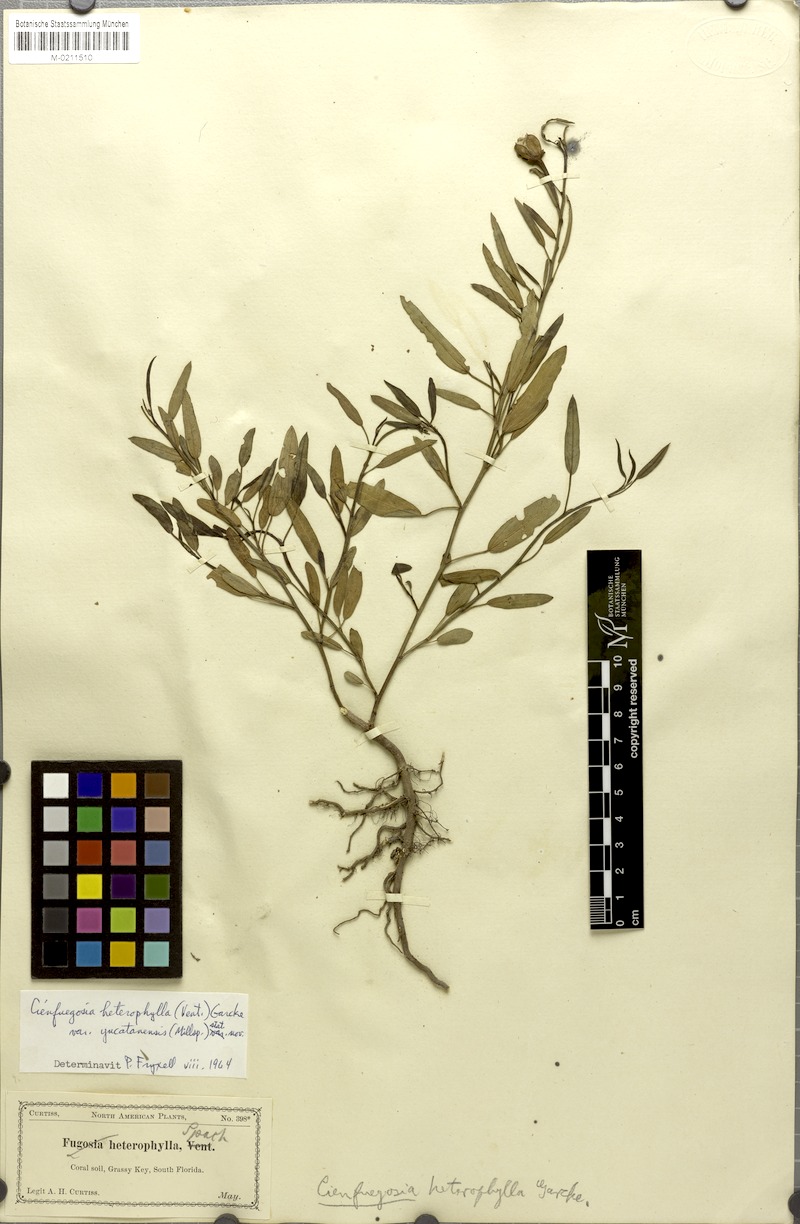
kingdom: Plantae
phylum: Tracheophyta
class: Magnoliopsida
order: Malvales
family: Malvaceae
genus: Cienfuegosia
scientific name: Cienfuegosia yucatanensis
